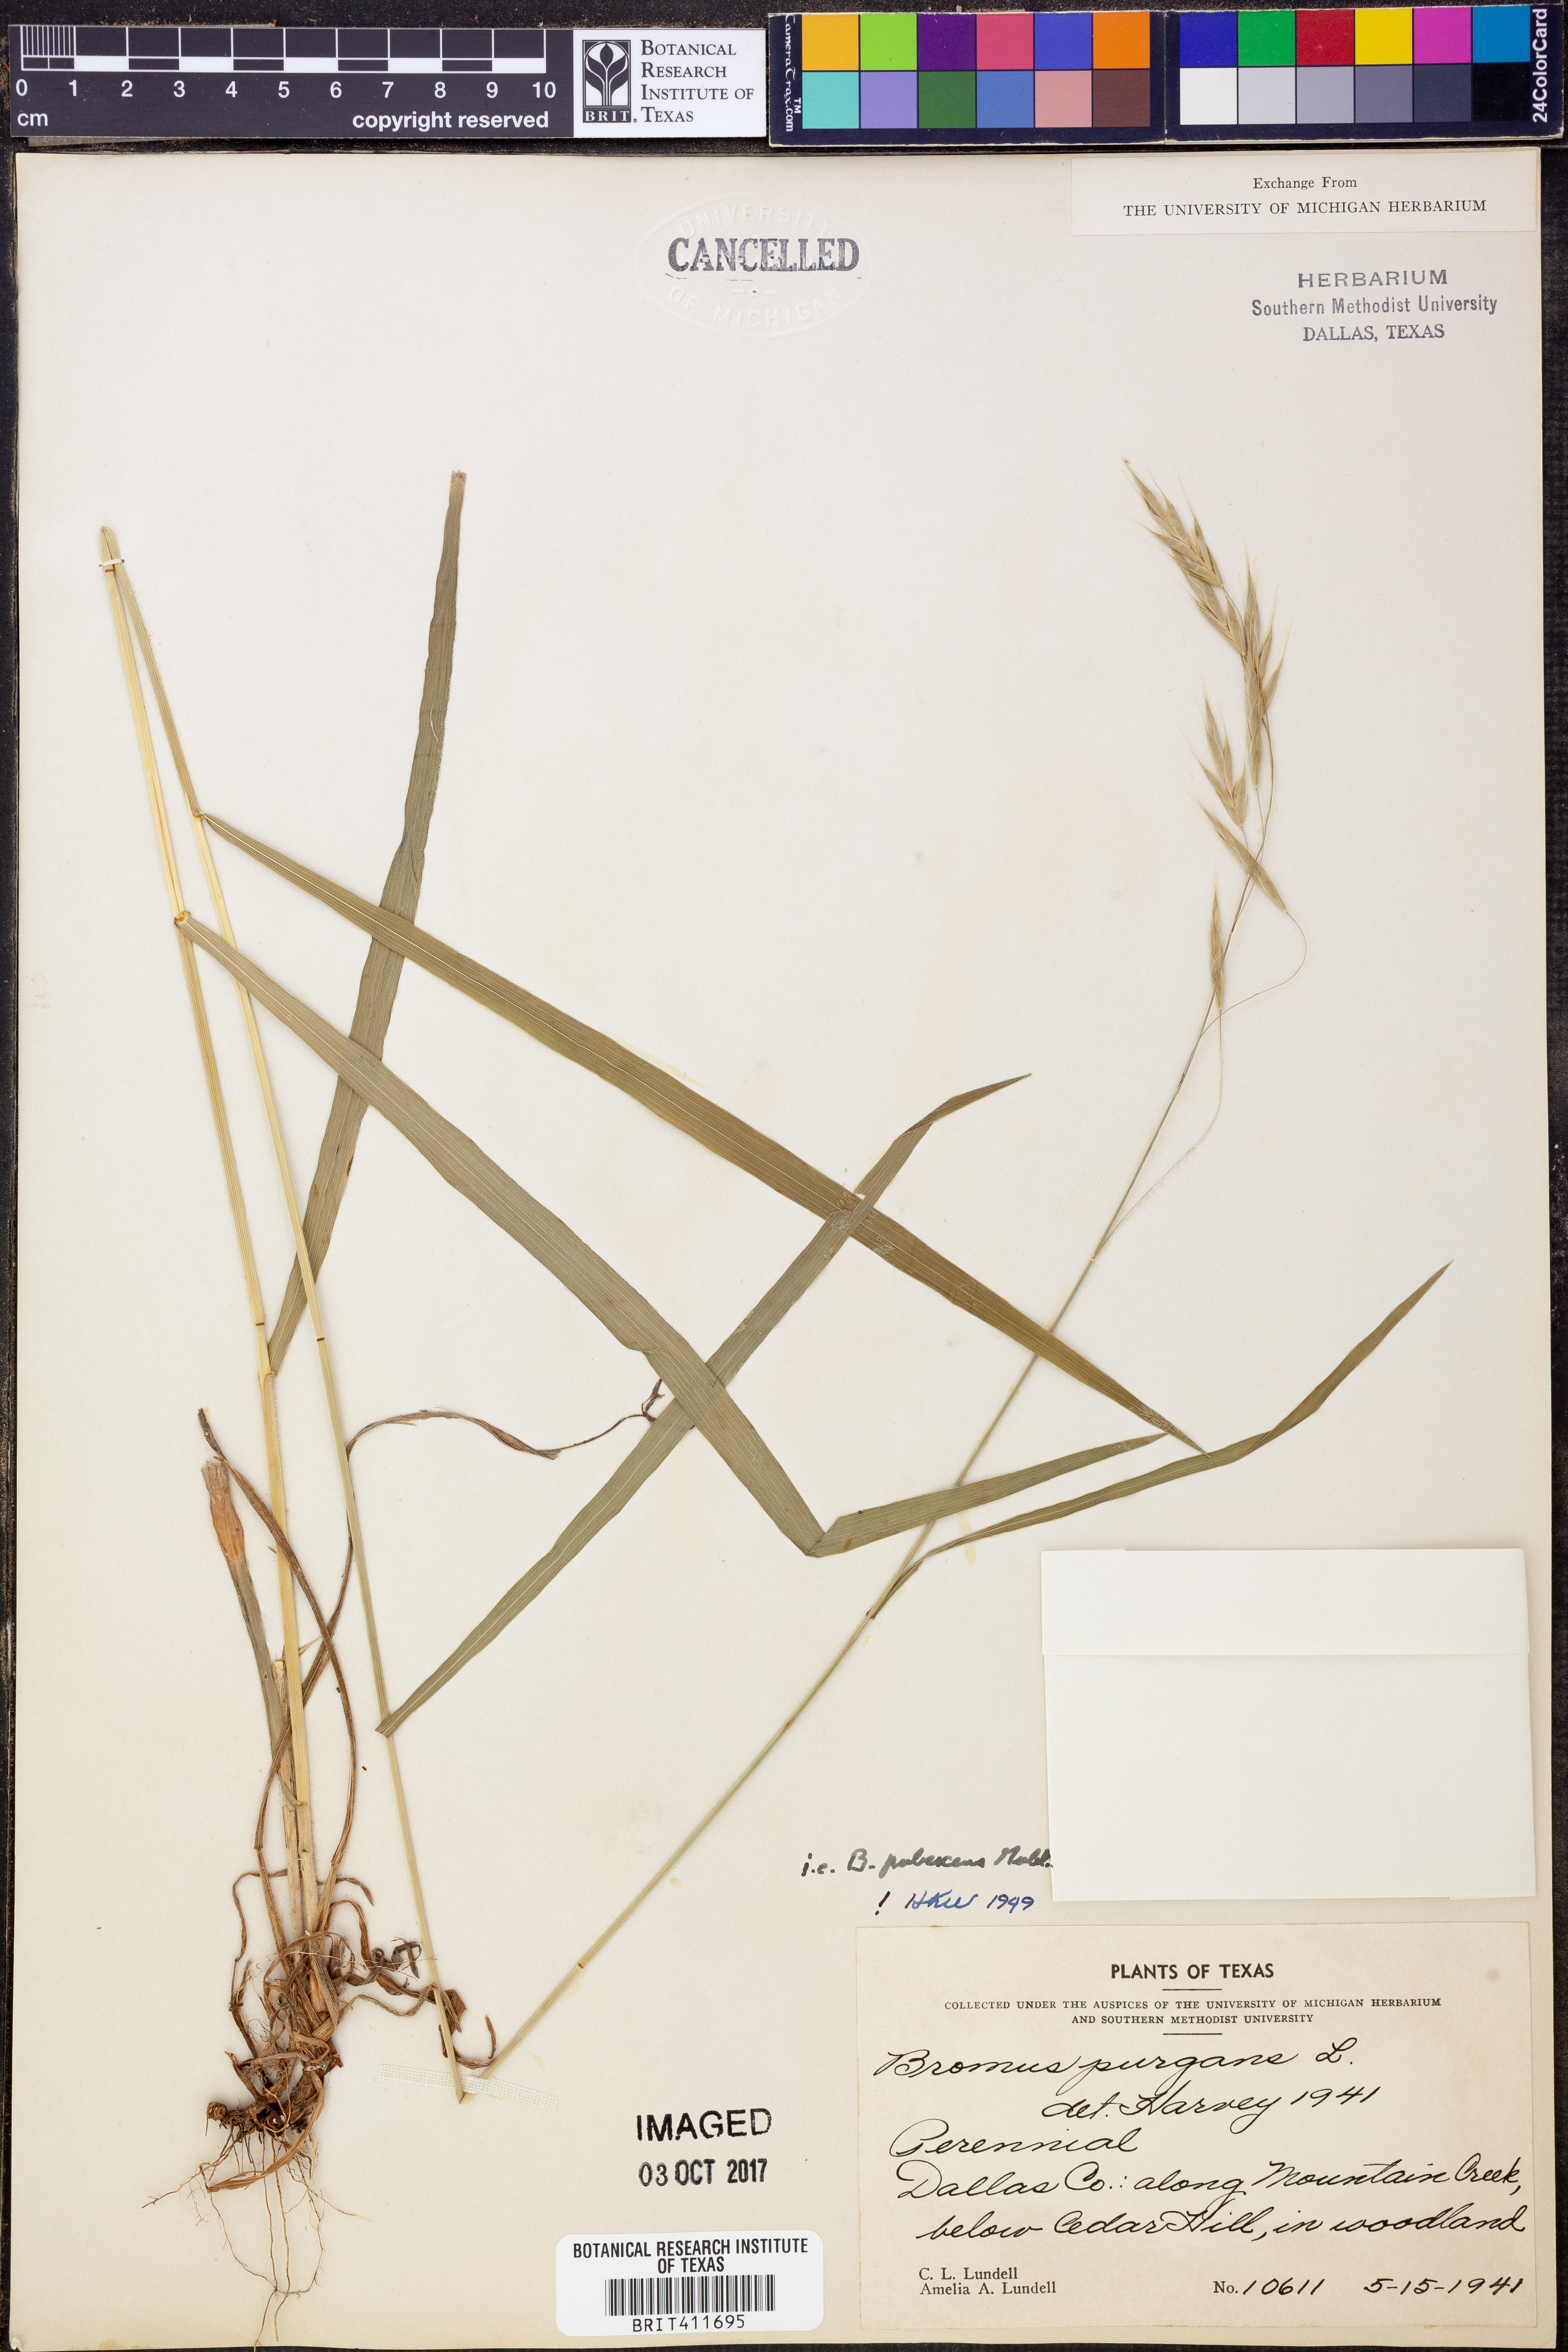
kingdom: Plantae
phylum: Tracheophyta
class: Liliopsida
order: Poales
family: Poaceae
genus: Triticum
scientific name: Triticum Bromus purgans
